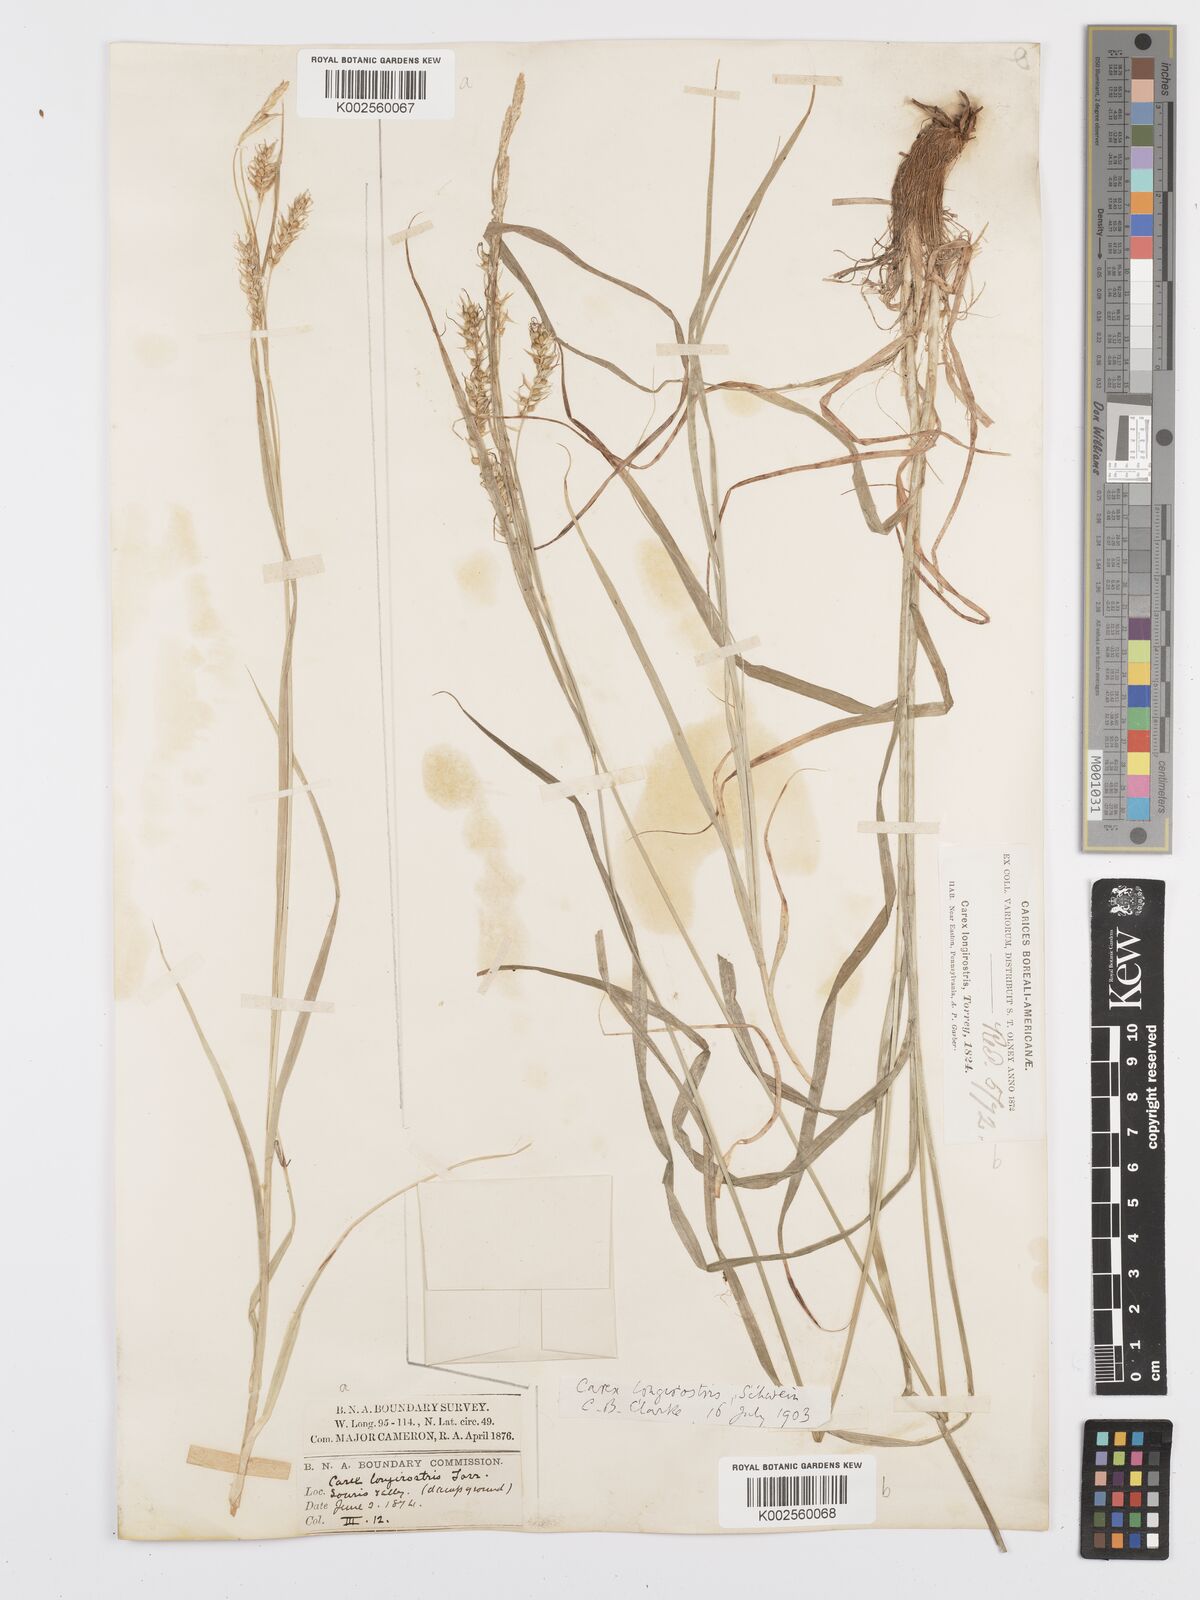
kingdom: Plantae
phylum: Tracheophyta
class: Liliopsida
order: Poales
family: Cyperaceae
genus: Carex
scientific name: Carex sprengelii
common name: Long-beaked sedge
